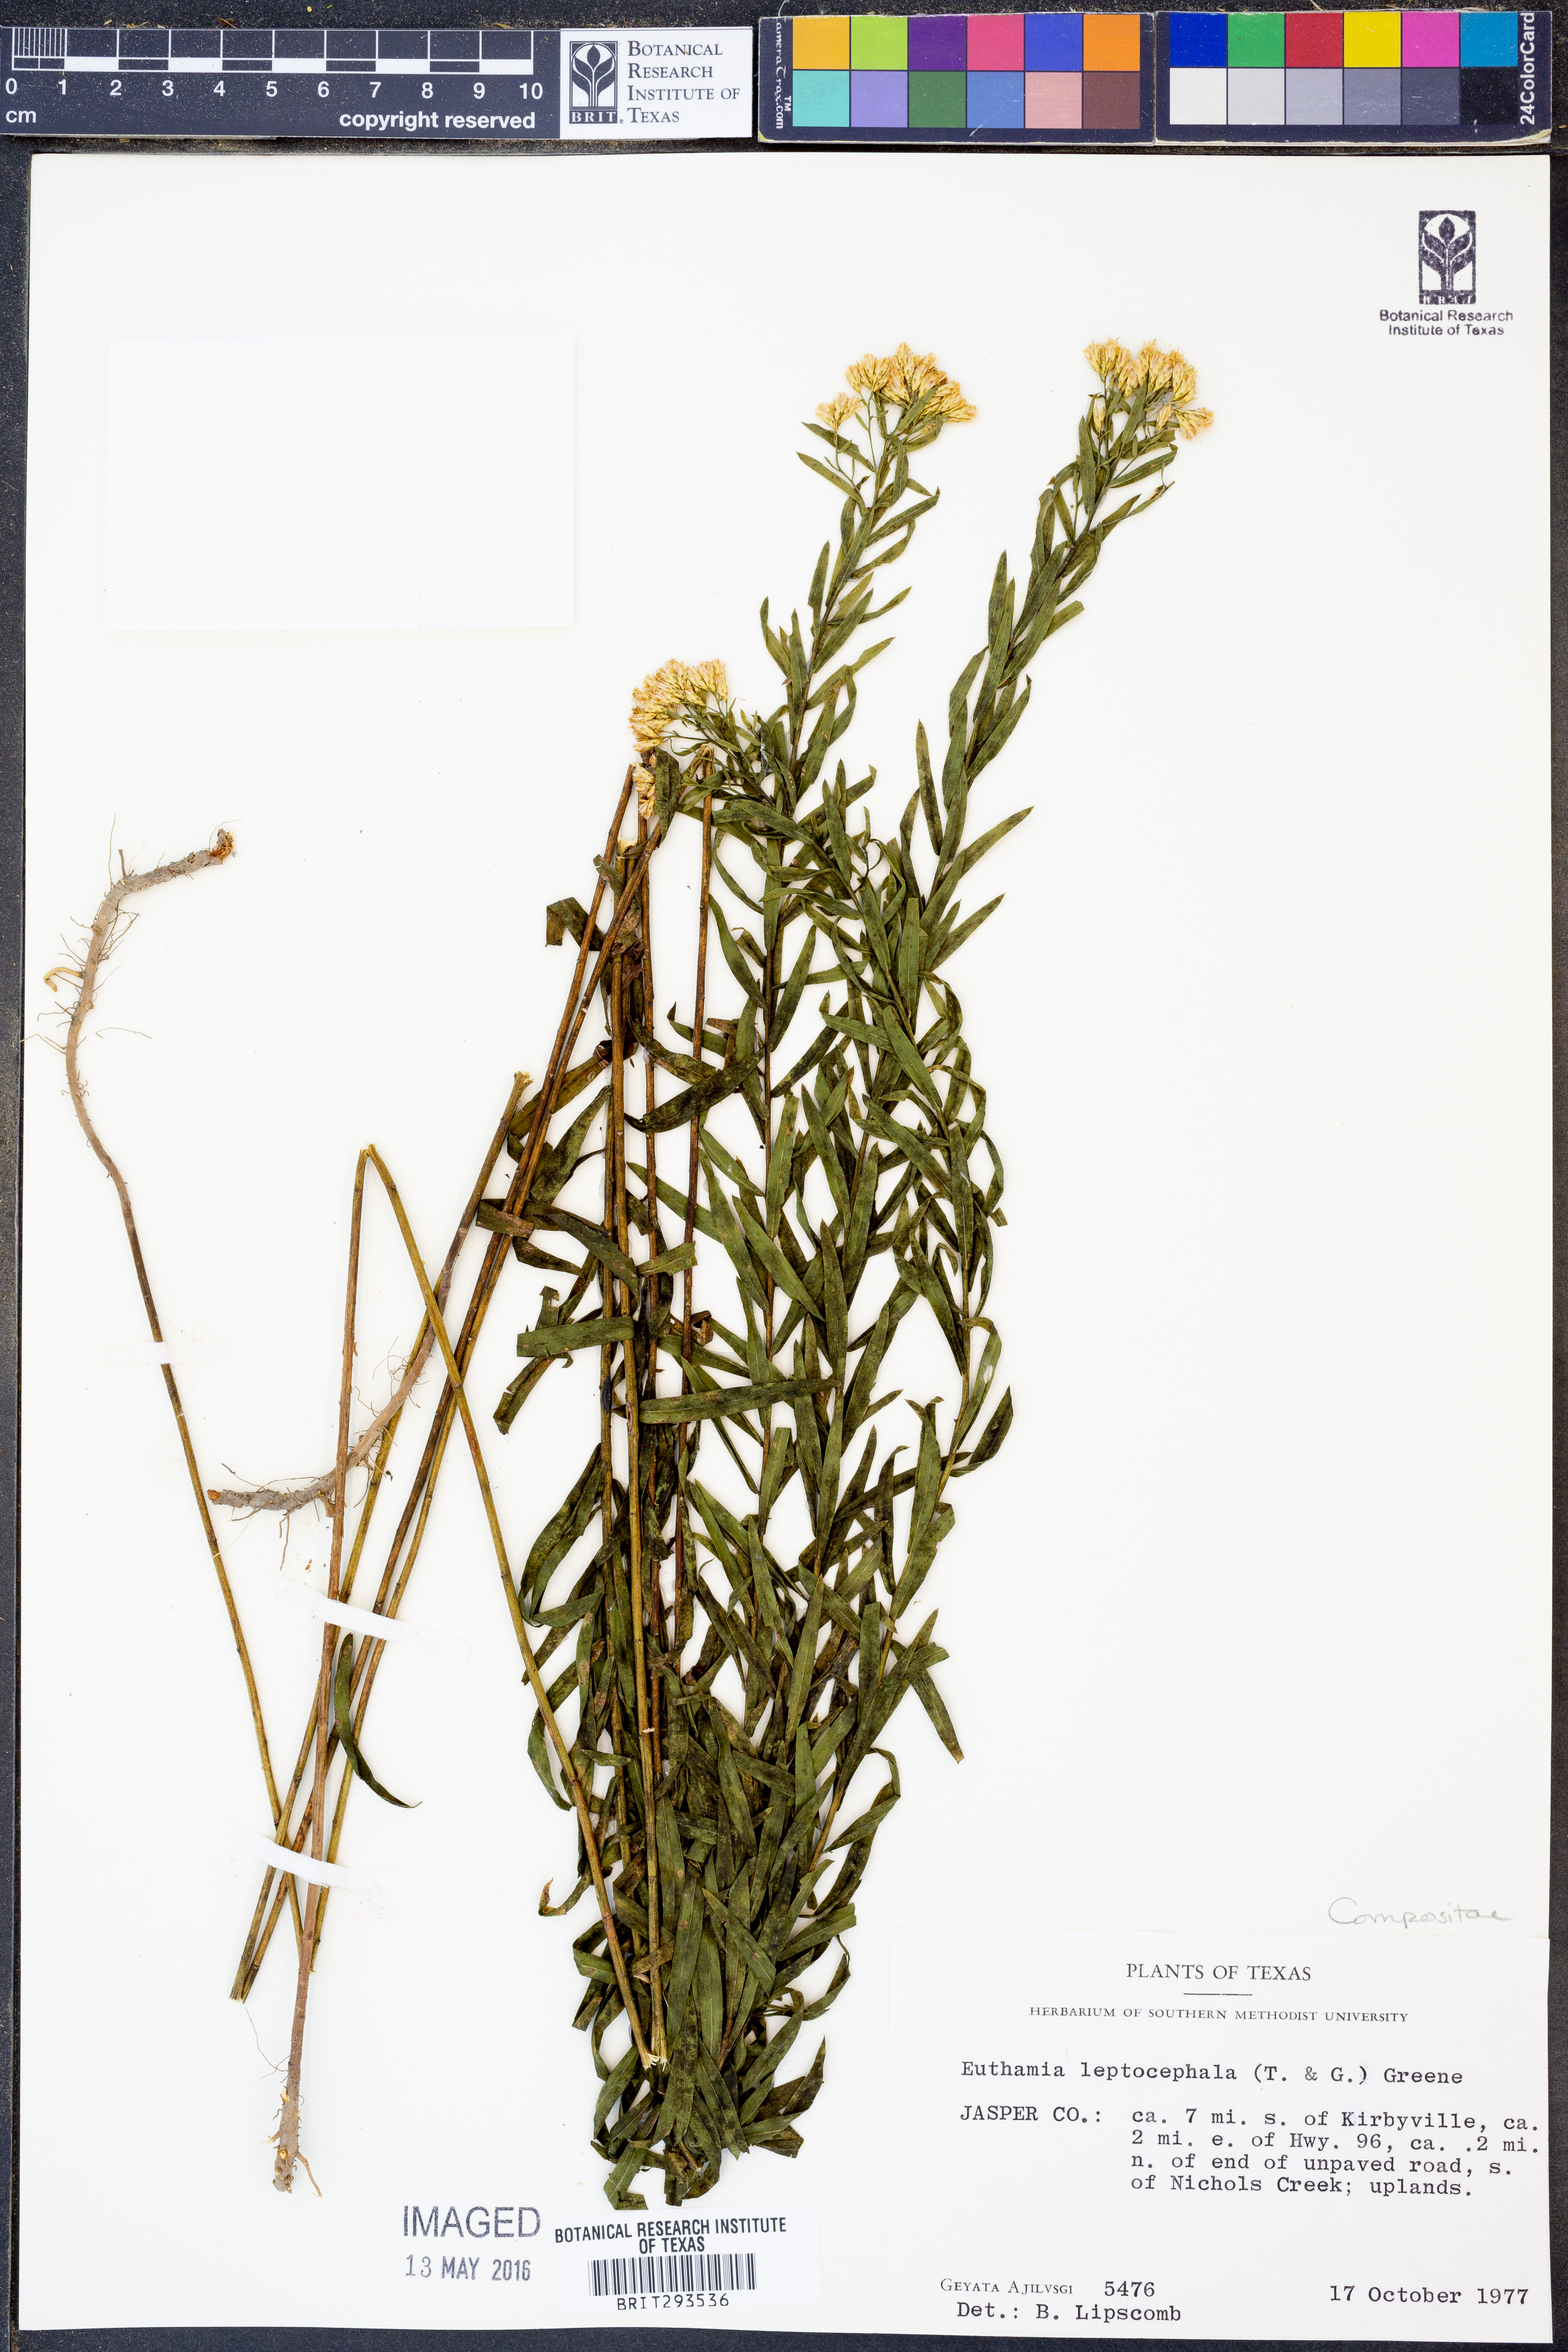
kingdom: Plantae
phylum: Tracheophyta
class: Magnoliopsida
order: Asterales
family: Asteraceae
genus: Euthamia
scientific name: Euthamia leptocephala
